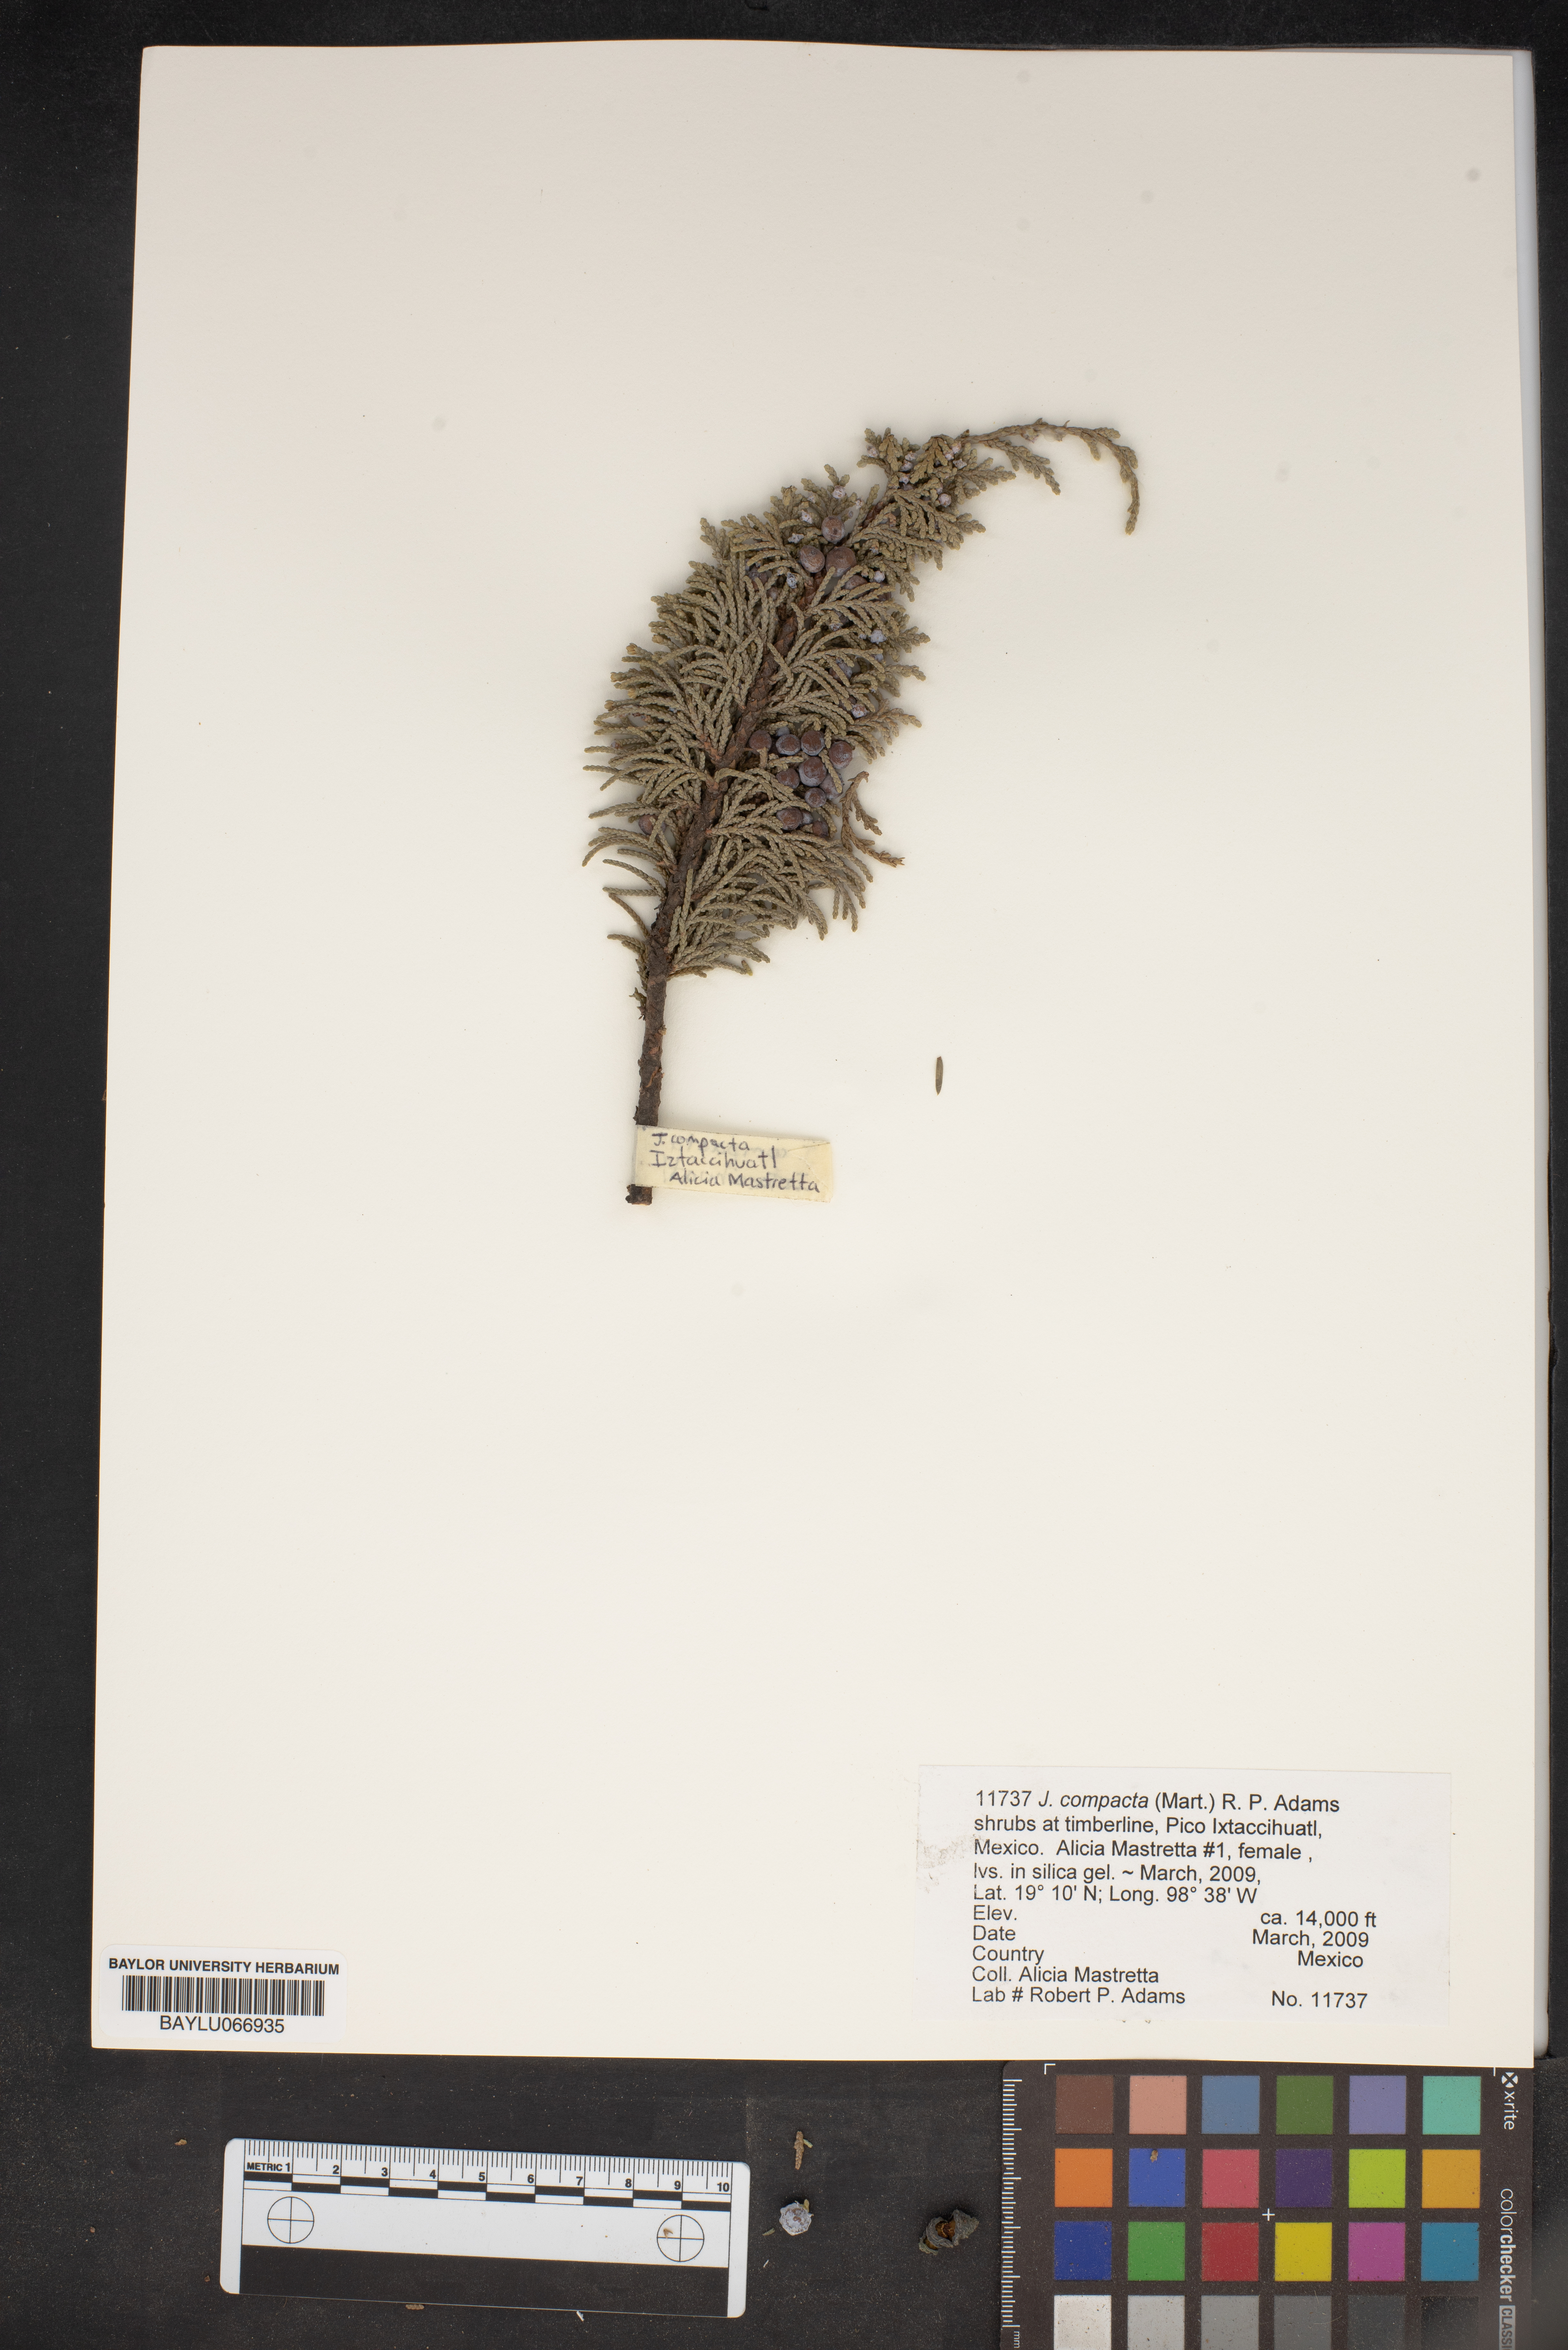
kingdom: Plantae
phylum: Tracheophyta
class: Pinopsida
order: Pinales
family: Cupressaceae
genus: Juniperus
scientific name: Juniperus monticola
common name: Mexican juniper
